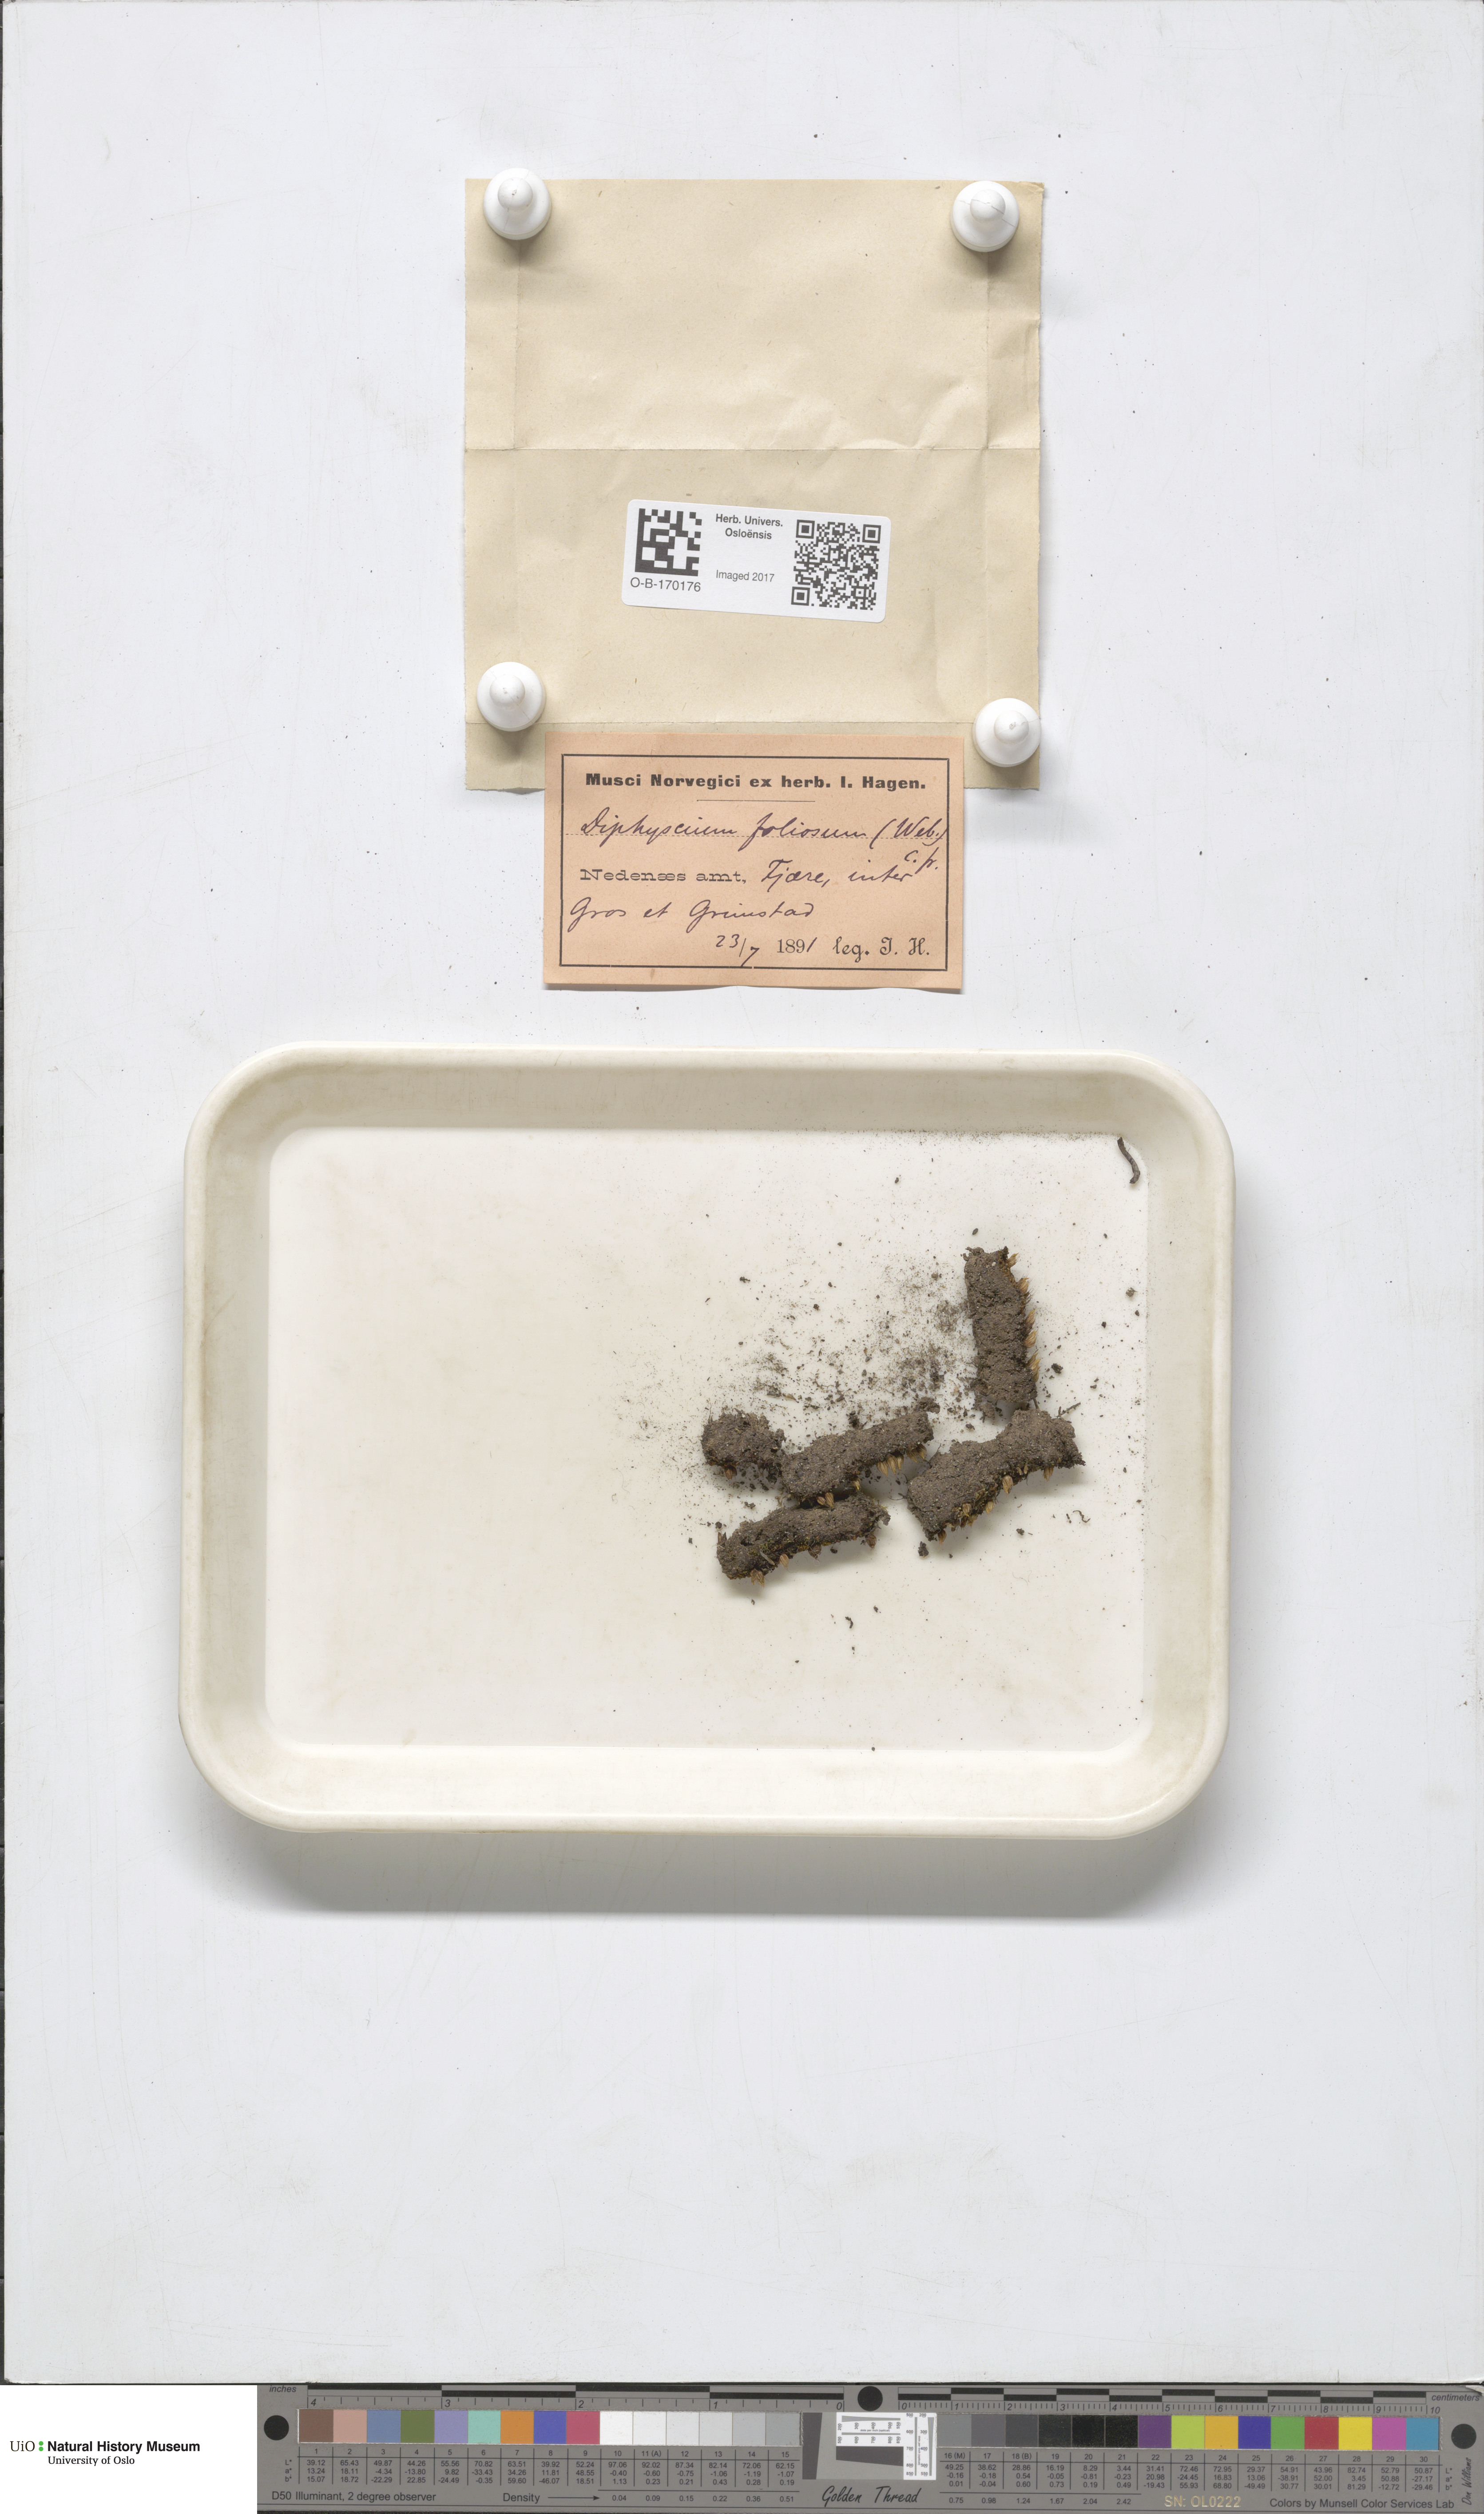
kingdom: Plantae
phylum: Bryophyta
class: Bryopsida
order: Diphysciales
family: Diphysciaceae
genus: Diphyscium
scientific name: Diphyscium foliosum
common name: Nut moss
